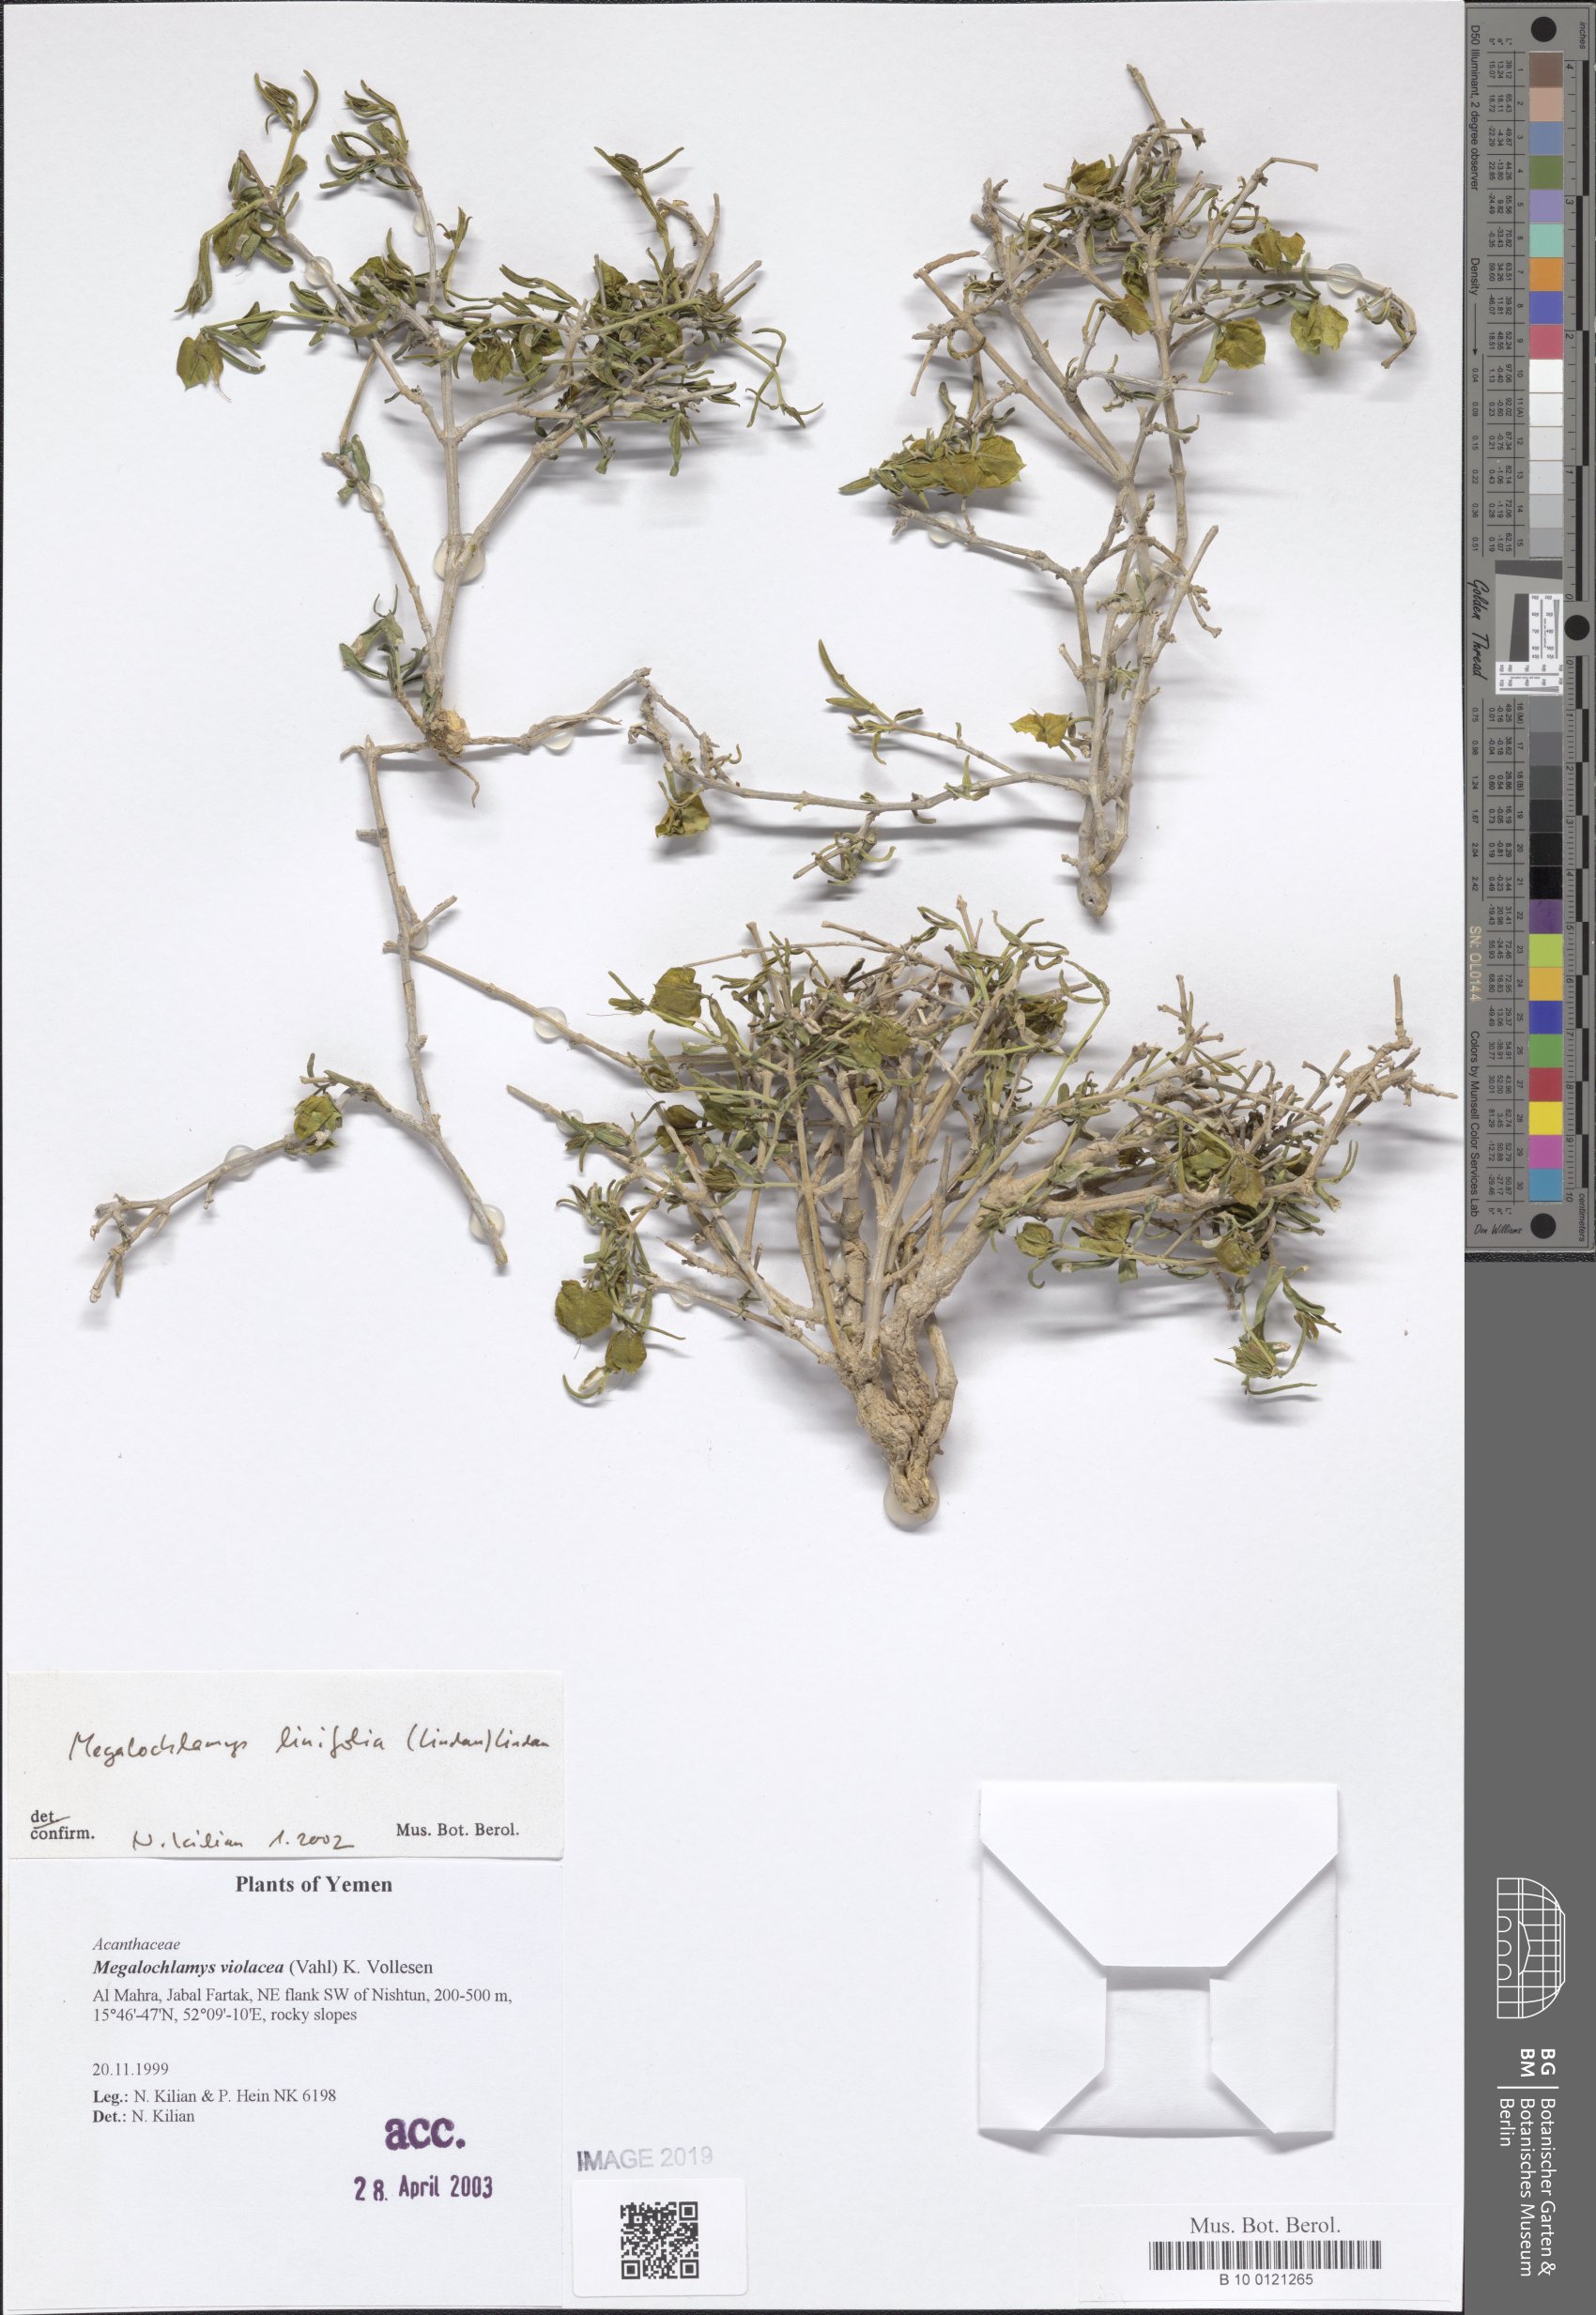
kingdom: Plantae
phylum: Tracheophyta
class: Magnoliopsida
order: Lamiales
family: Acanthaceae
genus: Megalochlamys
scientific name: Megalochlamys violacea
